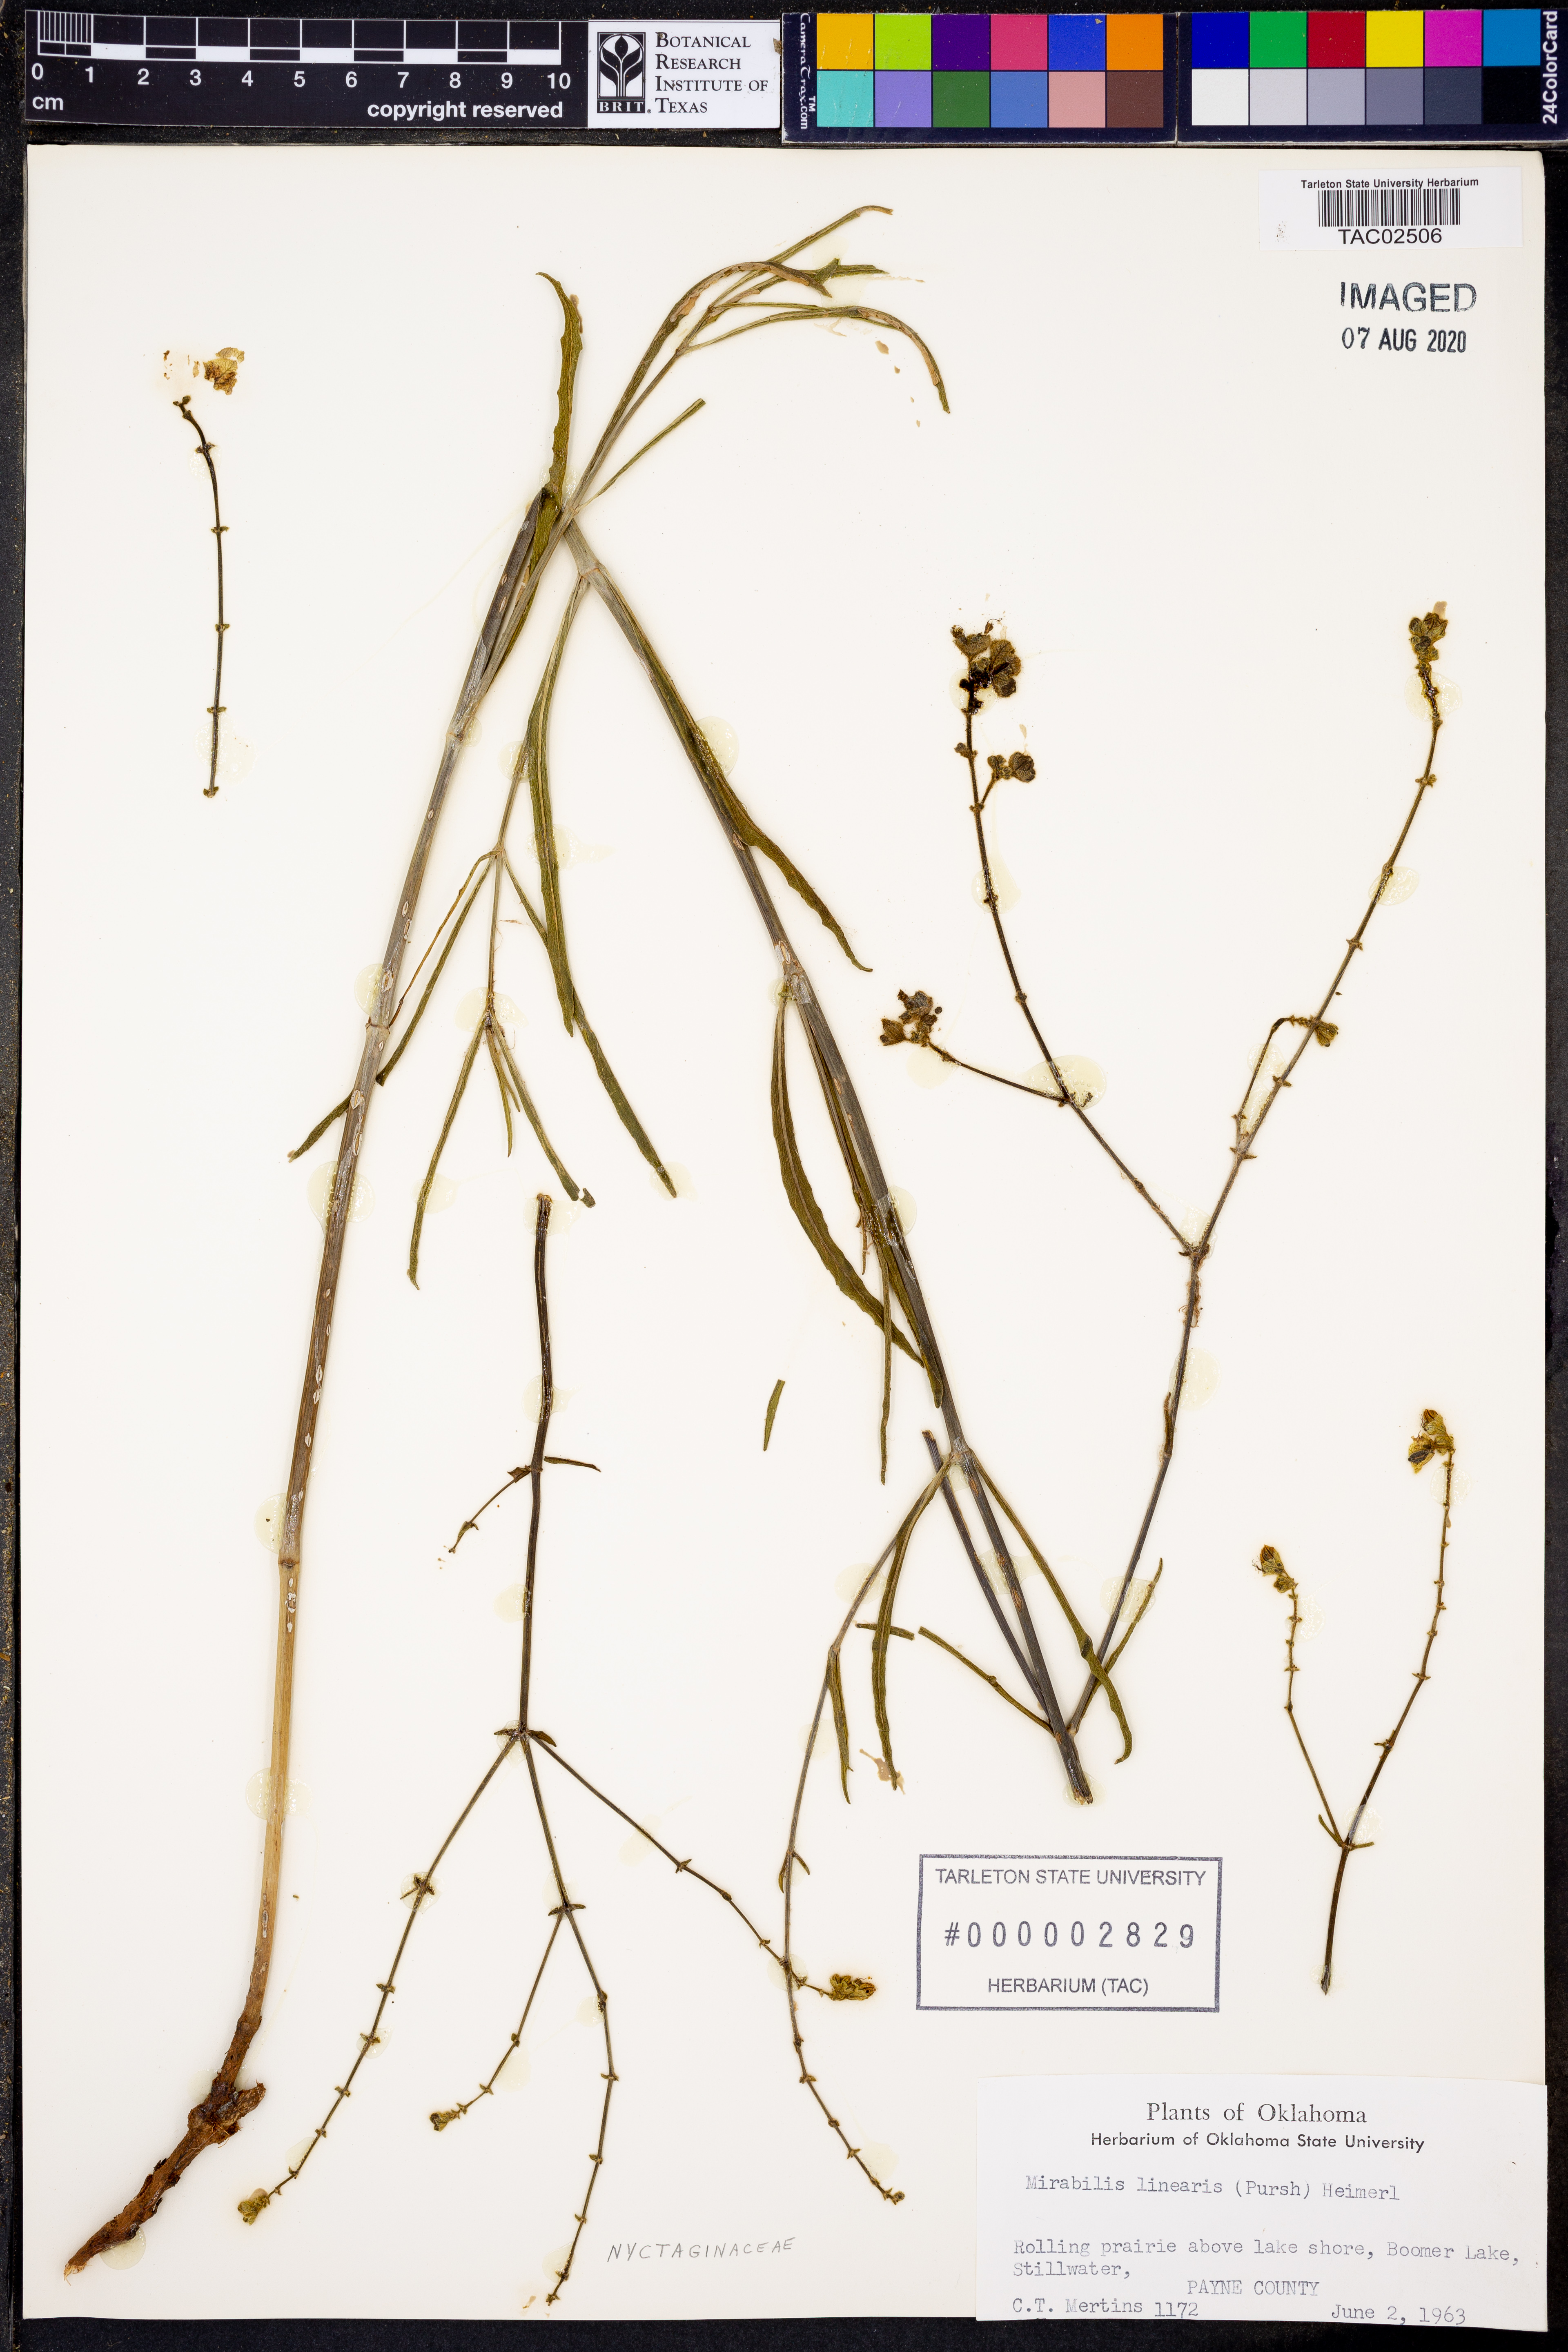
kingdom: Plantae
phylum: Tracheophyta
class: Magnoliopsida
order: Caryophyllales
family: Nyctaginaceae
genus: Mirabilis
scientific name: Mirabilis linearis
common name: Linear-leaved four-o'clock
